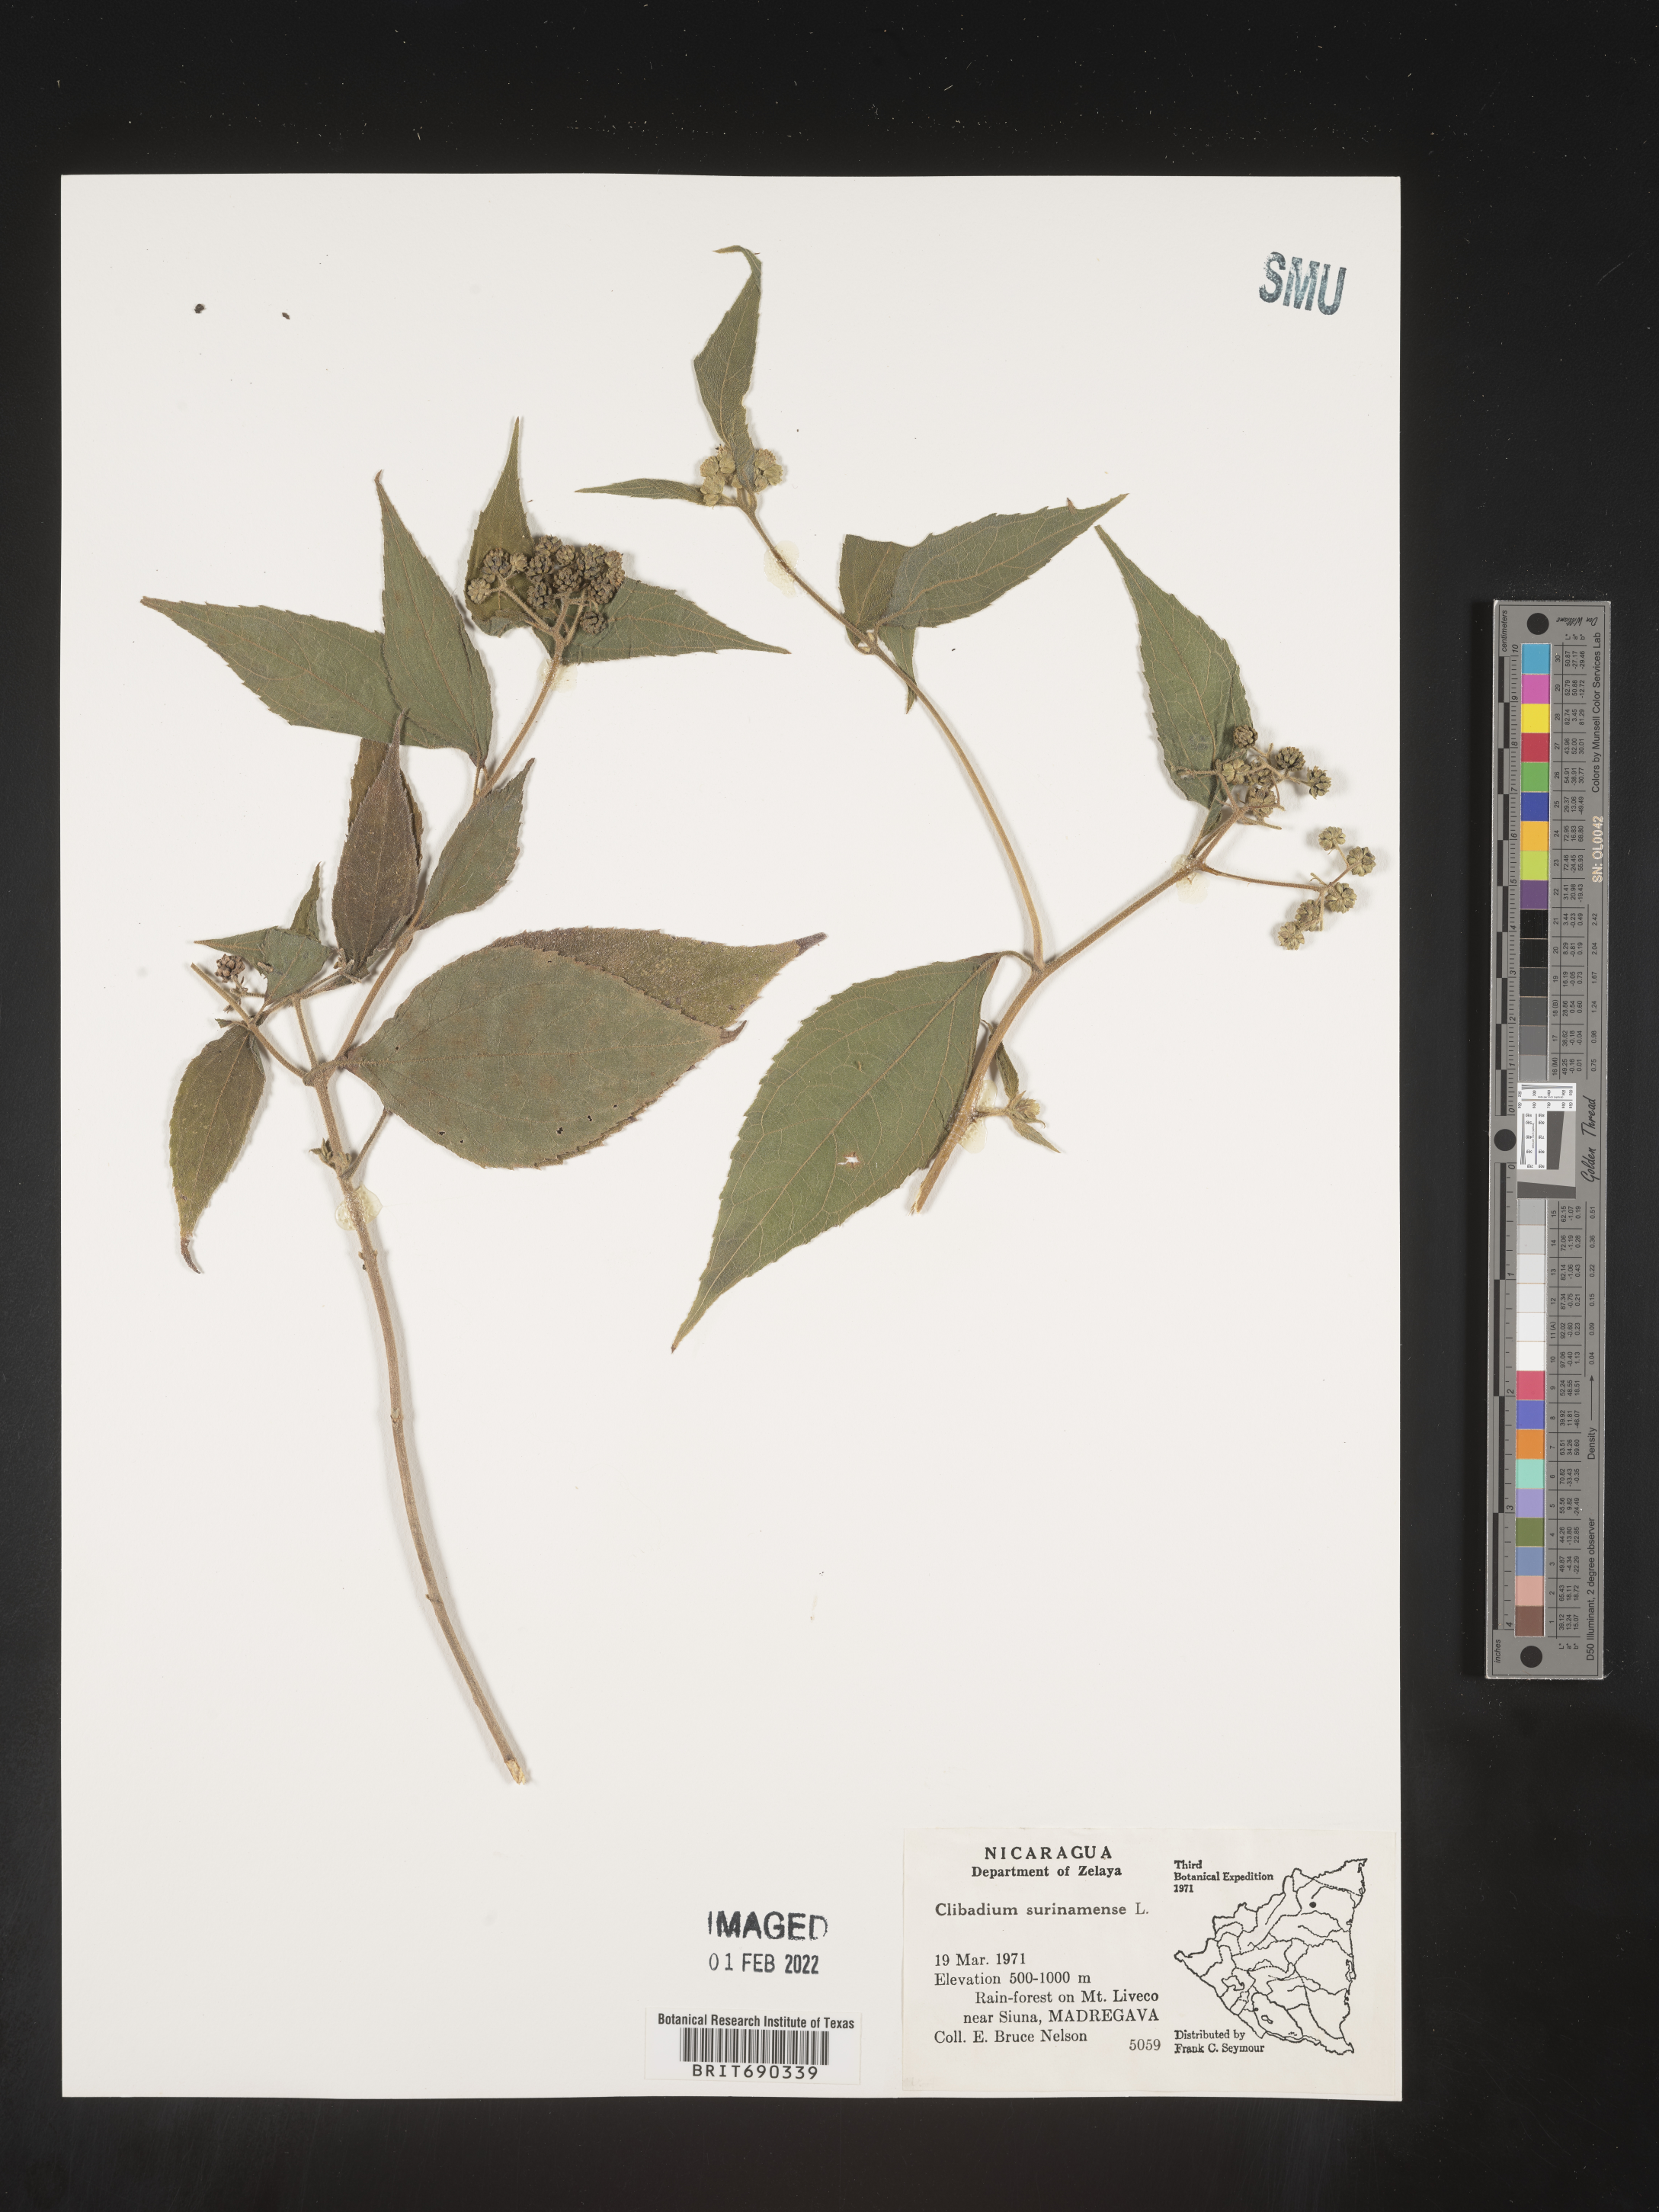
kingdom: Plantae
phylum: Tracheophyta
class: Magnoliopsida
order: Asterales
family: Asteraceae
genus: Clibadium
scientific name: Clibadium
